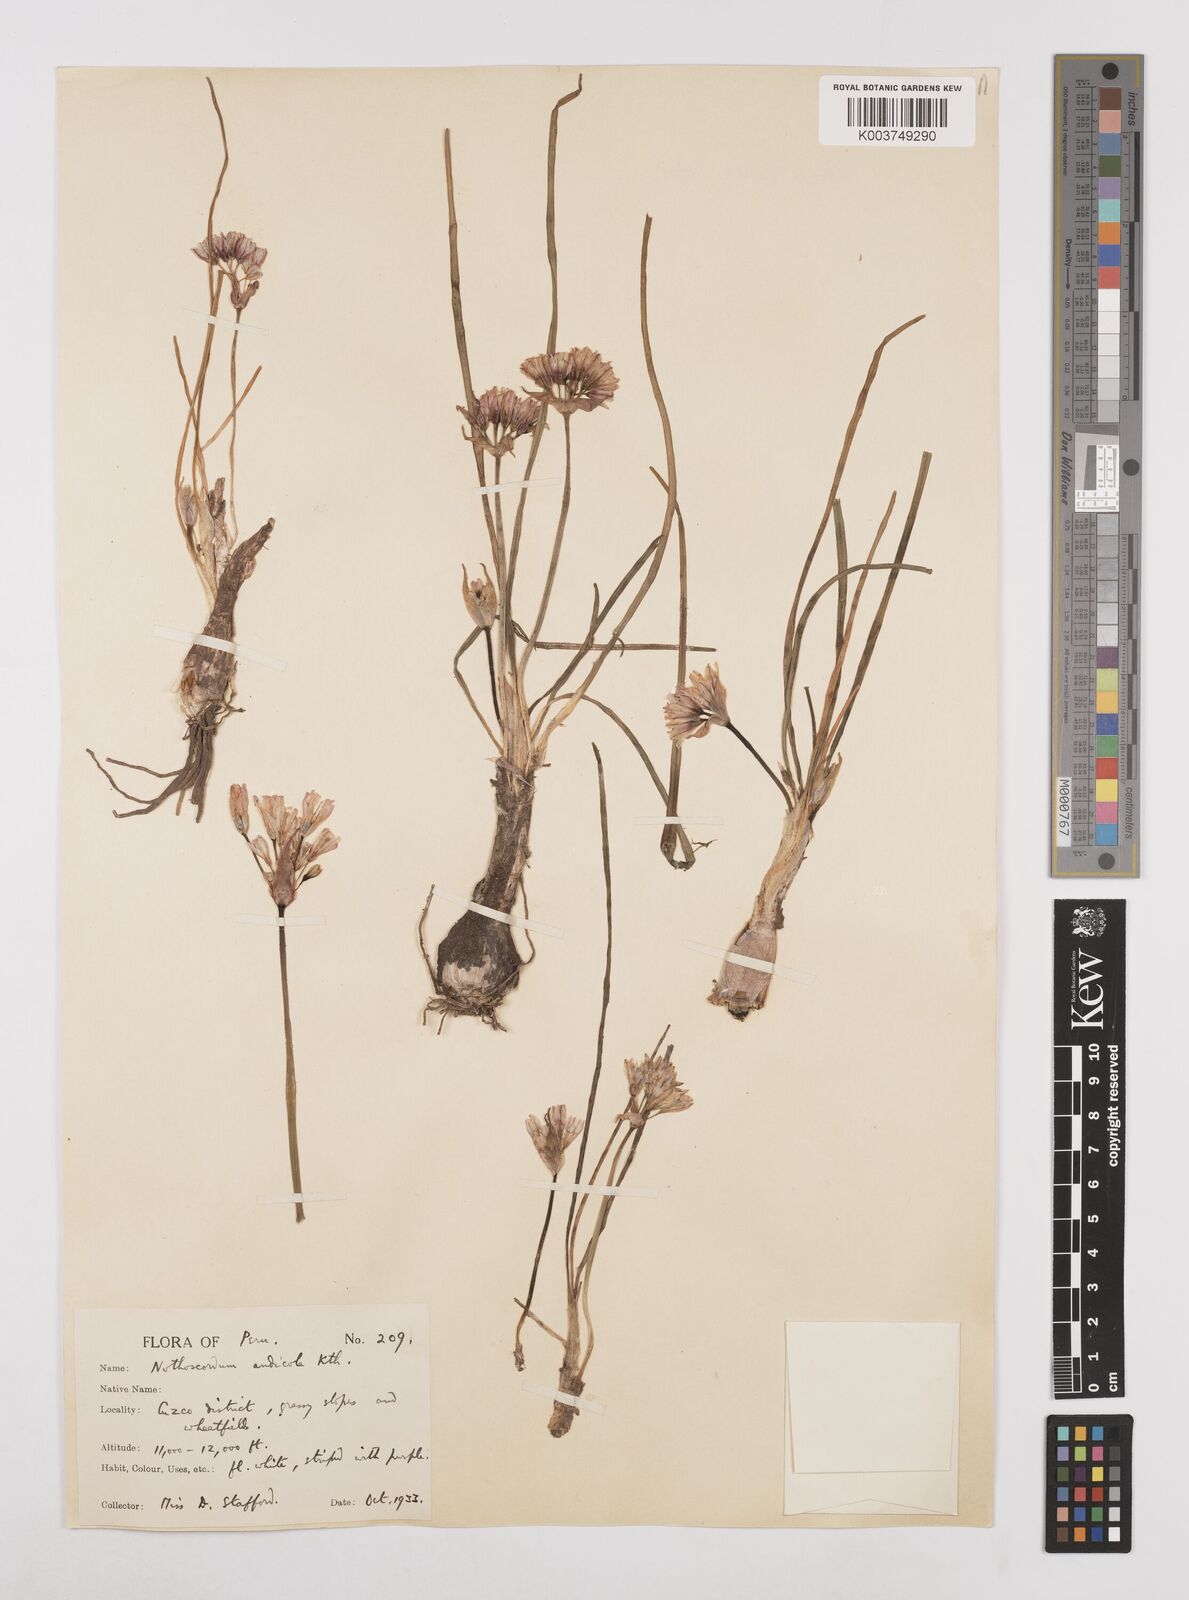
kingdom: Plantae
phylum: Tracheophyta
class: Liliopsida
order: Asparagales
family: Amaryllidaceae
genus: Nothoscordum
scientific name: Nothoscordum andicola
